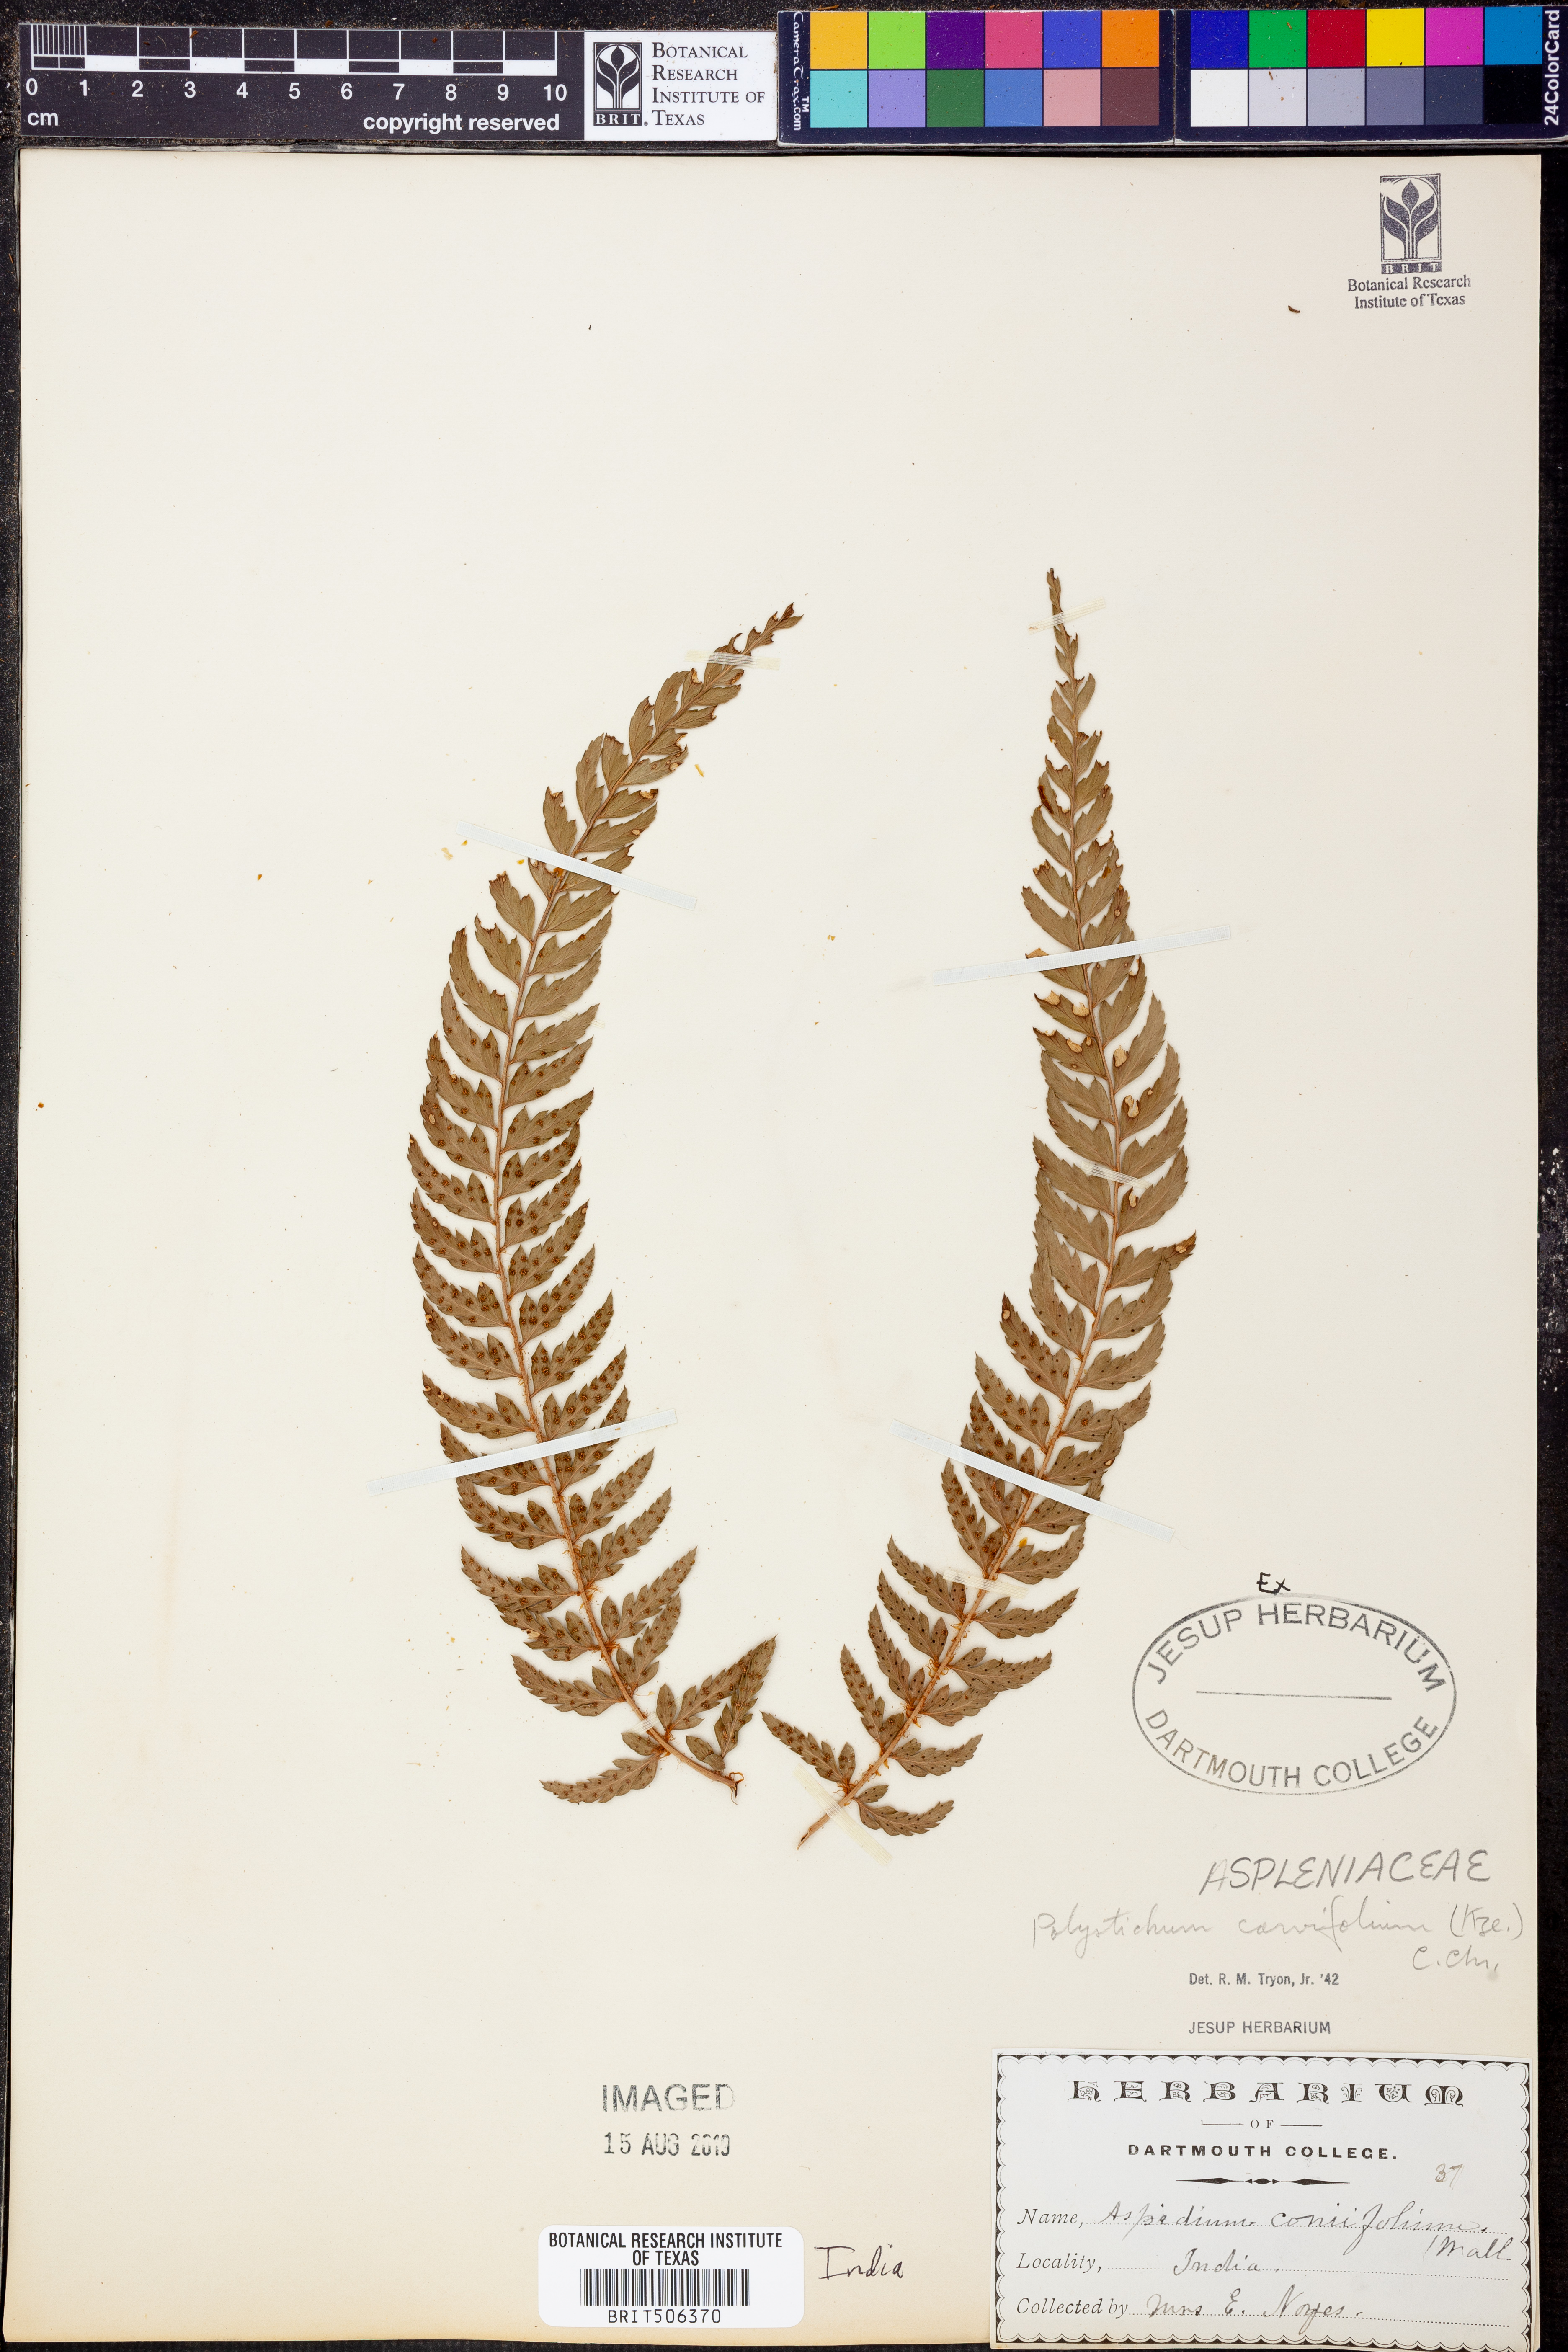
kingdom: Plantae
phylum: Tracheophyta
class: Polypodiopsida
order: Polypodiales
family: Dryopteridaceae
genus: Arachniodes
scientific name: Arachniodes carvifolia
